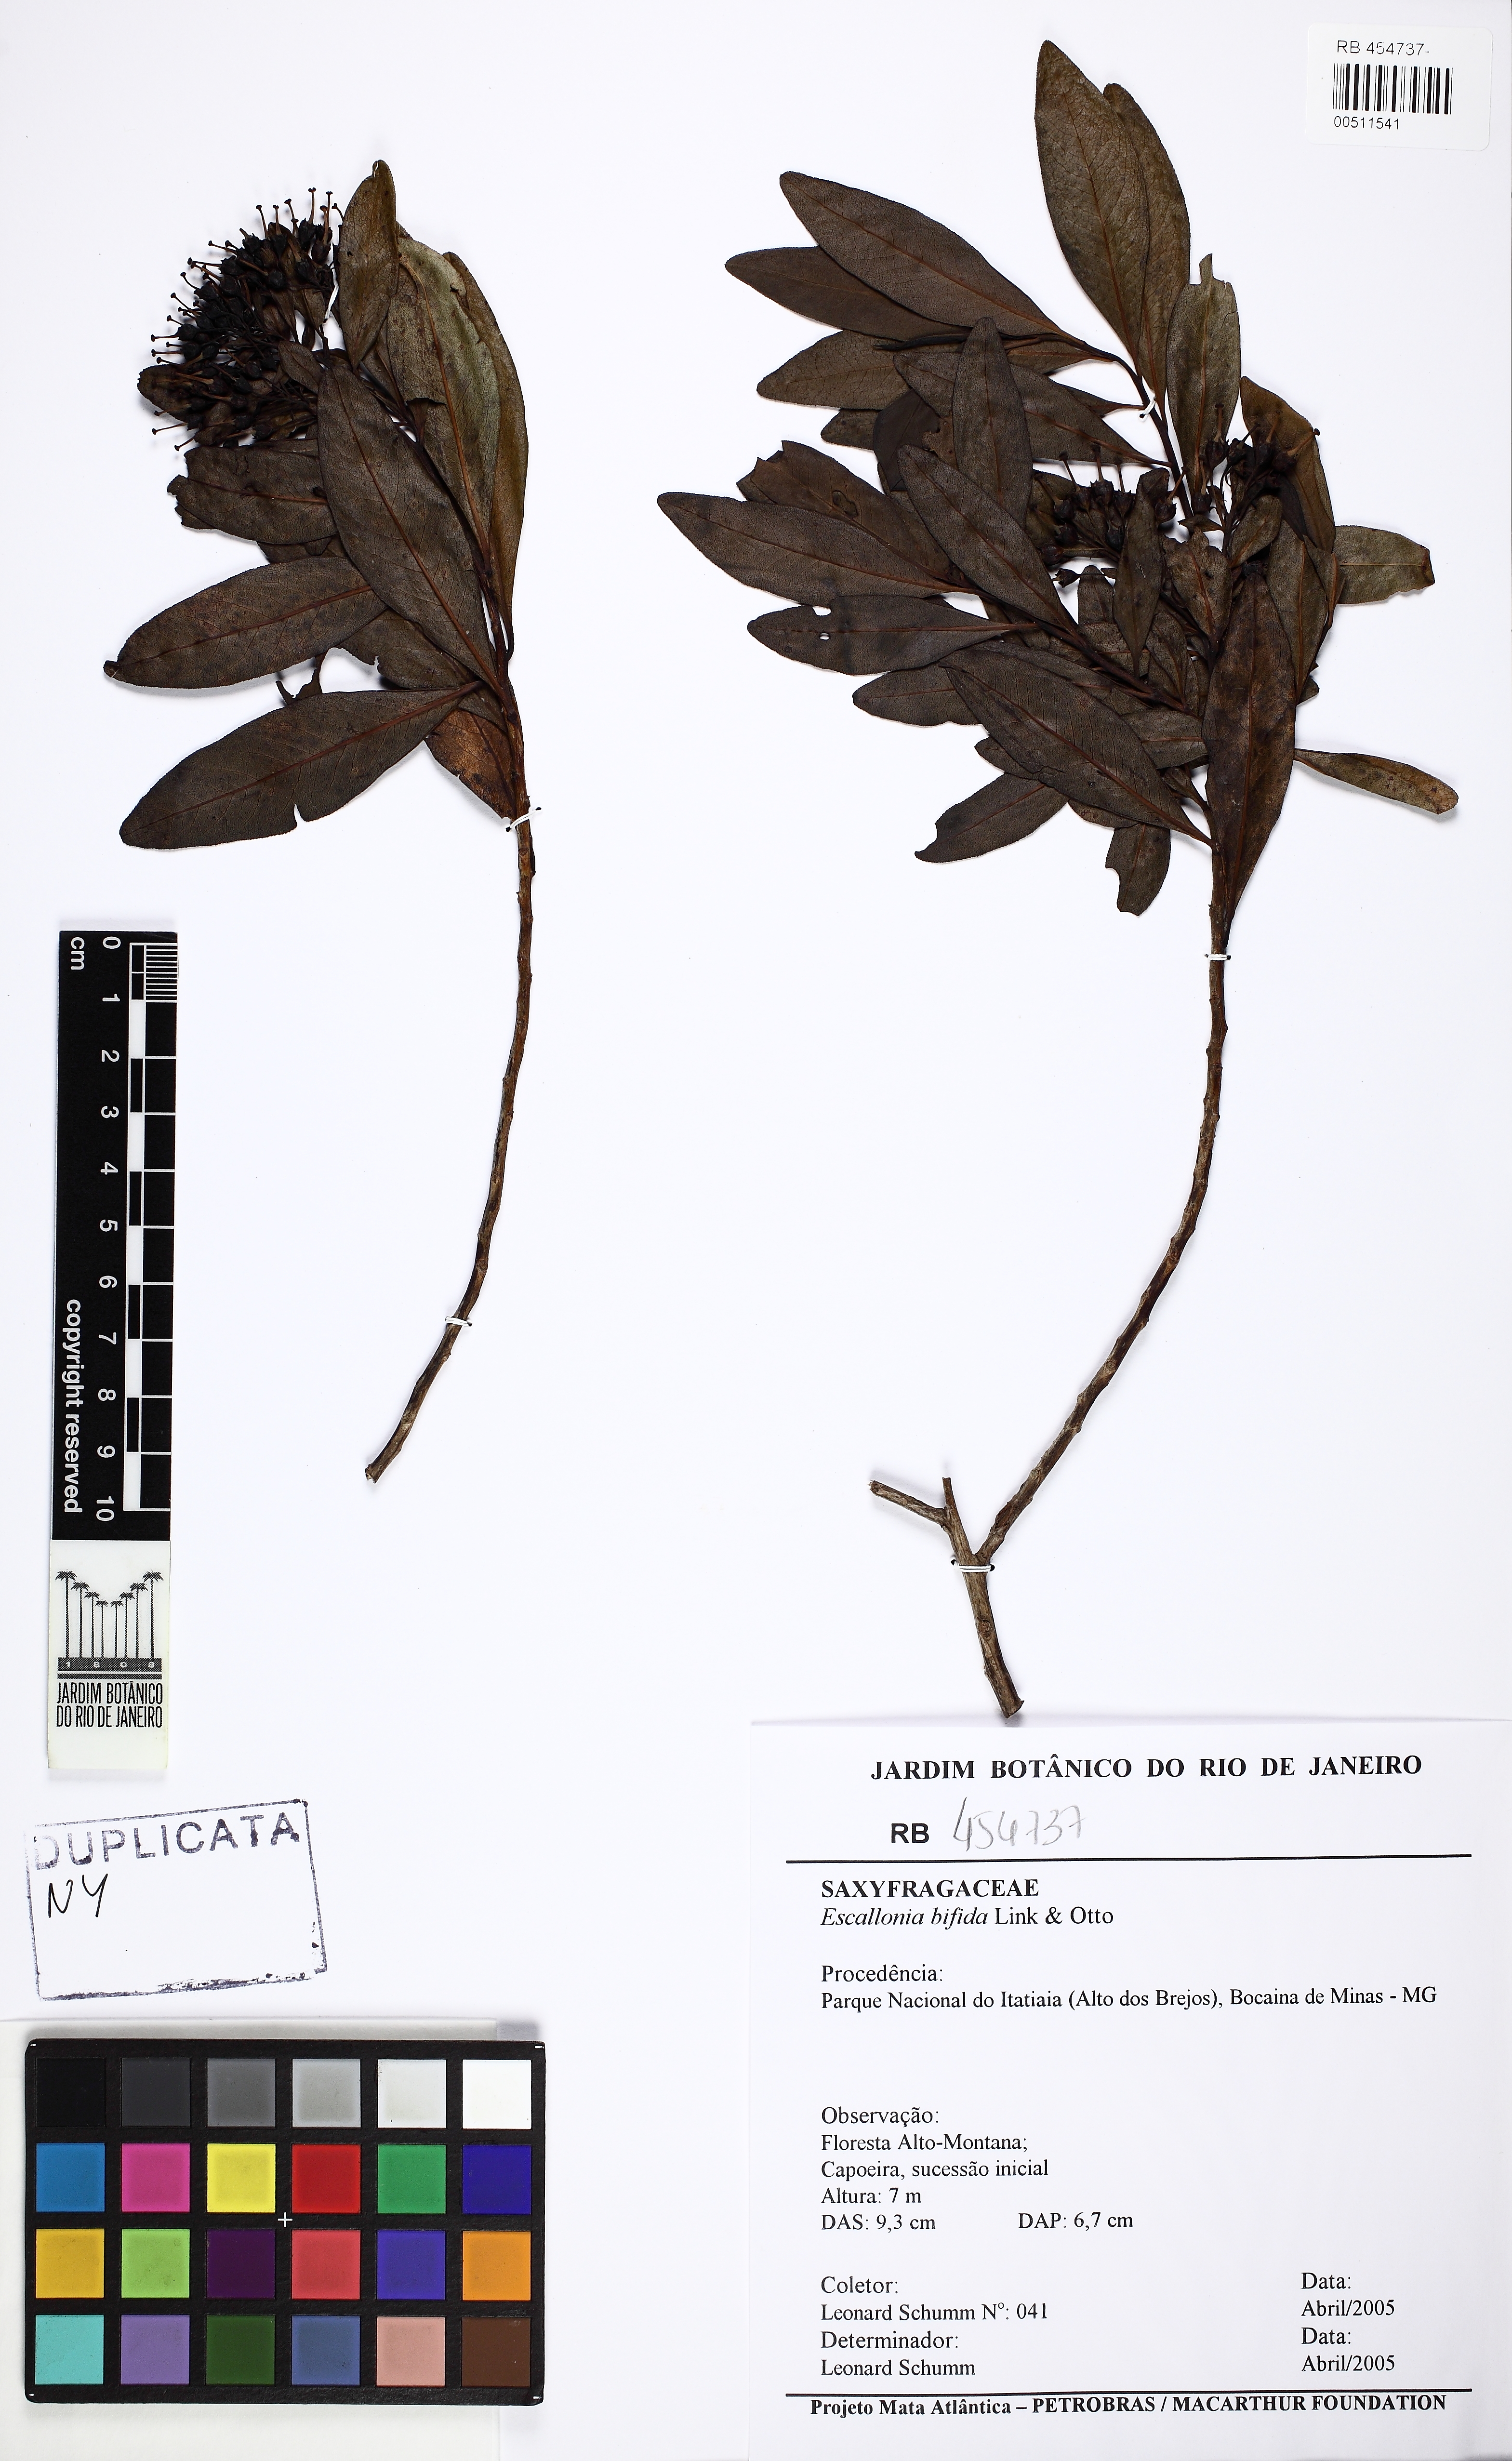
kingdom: Plantae
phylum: Tracheophyta
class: Magnoliopsida
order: Escalloniales
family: Escalloniaceae
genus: Escallonia
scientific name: Escallonia bifida
